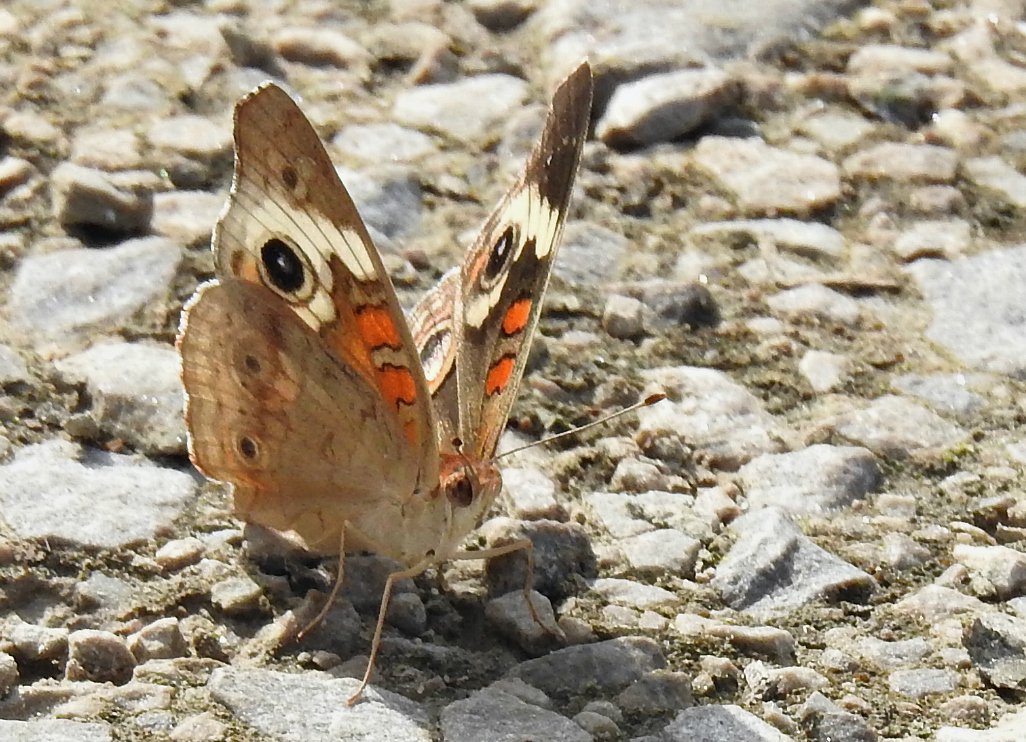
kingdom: Animalia
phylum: Arthropoda
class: Insecta
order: Lepidoptera
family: Nymphalidae
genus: Junonia
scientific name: Junonia coenia
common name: Common Buckeye
